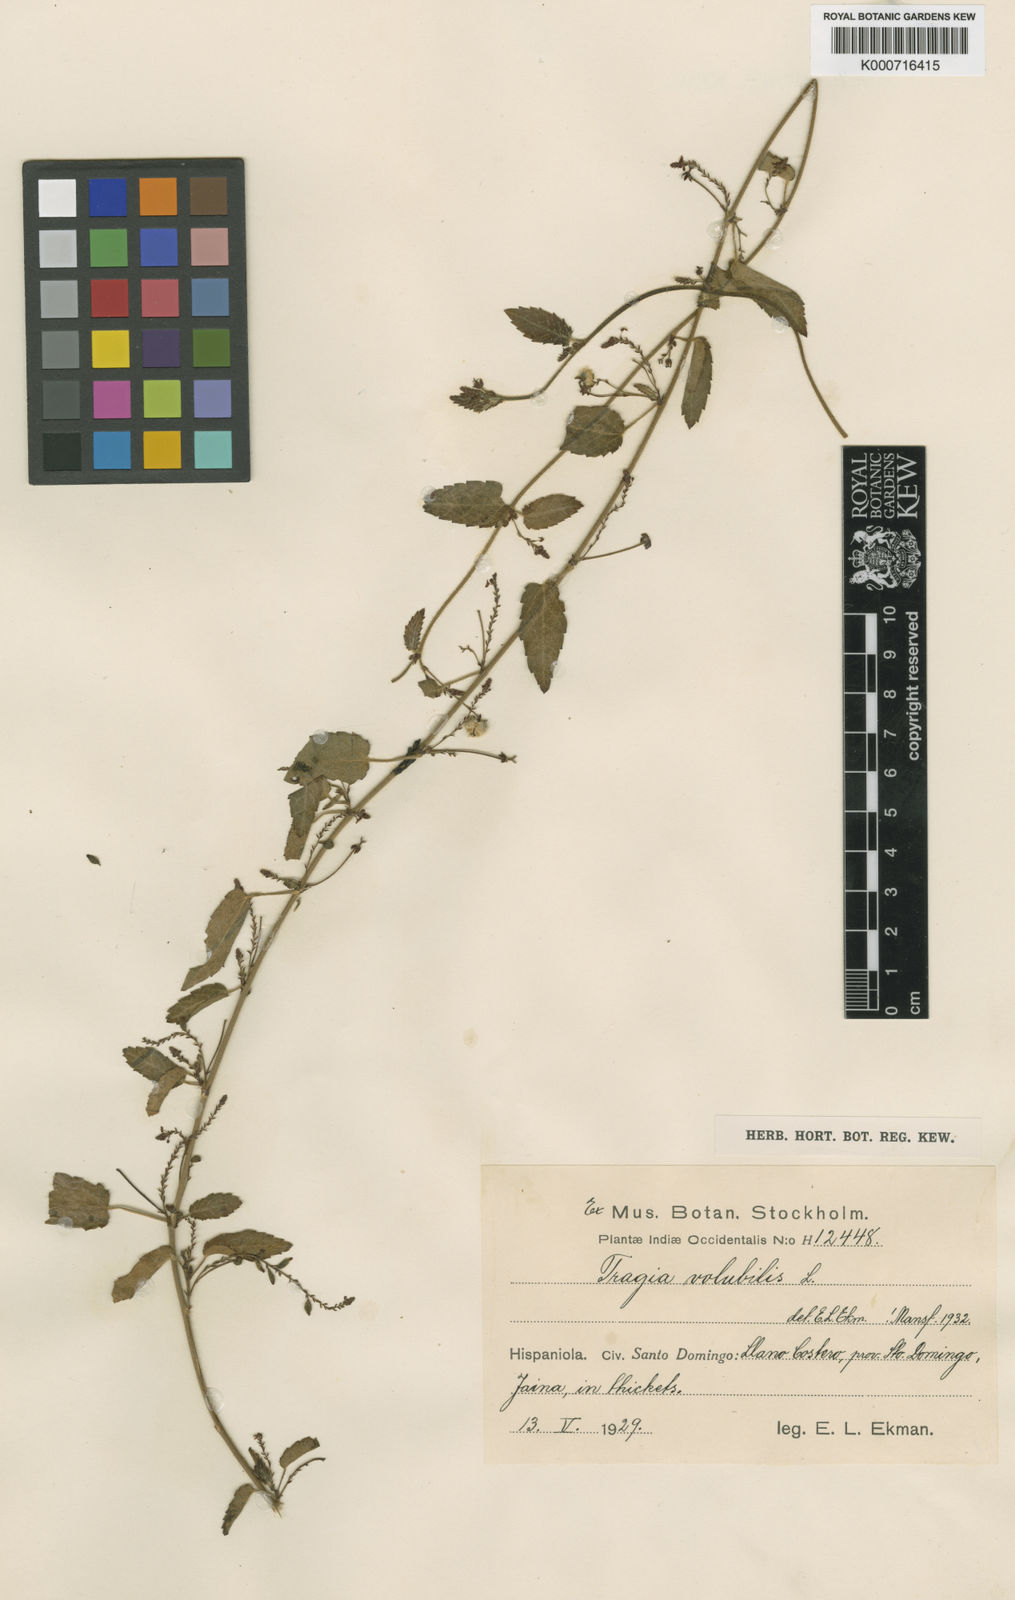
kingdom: Plantae
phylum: Tracheophyta
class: Magnoliopsida
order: Malpighiales
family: Euphorbiaceae
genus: Tragia
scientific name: Tragia volubilis
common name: Twining cow-itch
